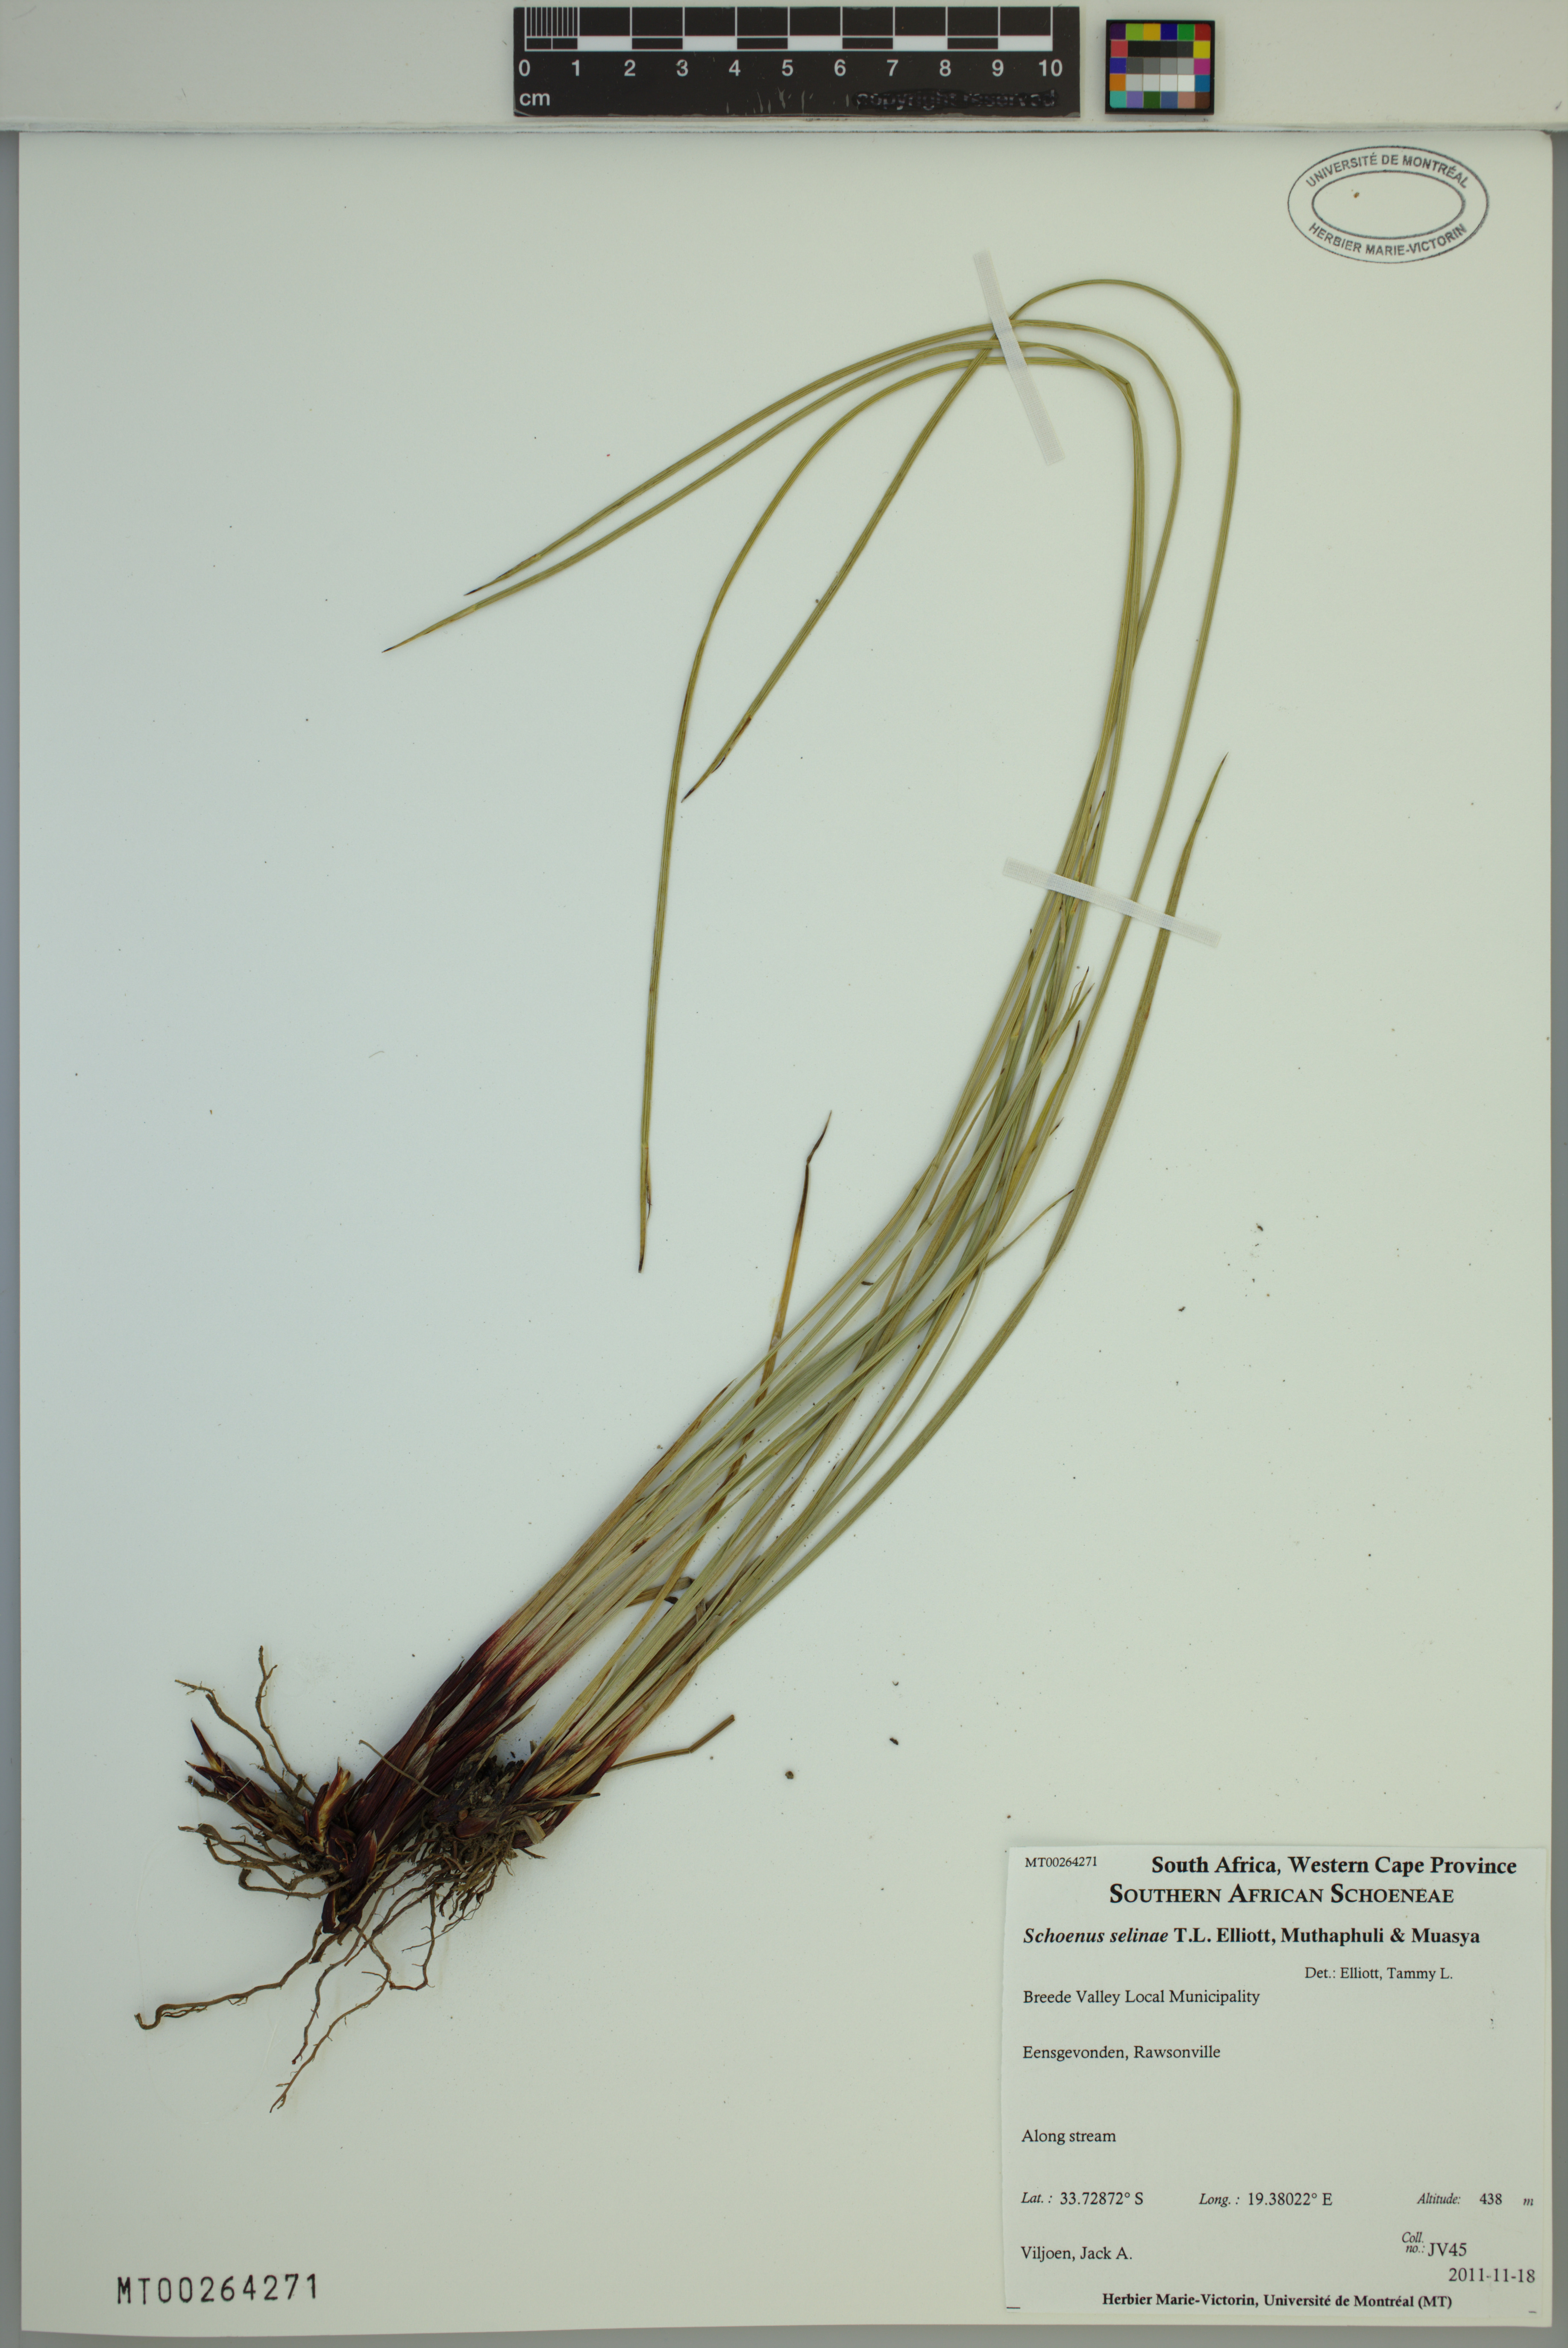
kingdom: Plantae
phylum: Tracheophyta
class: Liliopsida
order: Poales
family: Cyperaceae
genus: Schoenus
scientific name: Schoenus selinae
